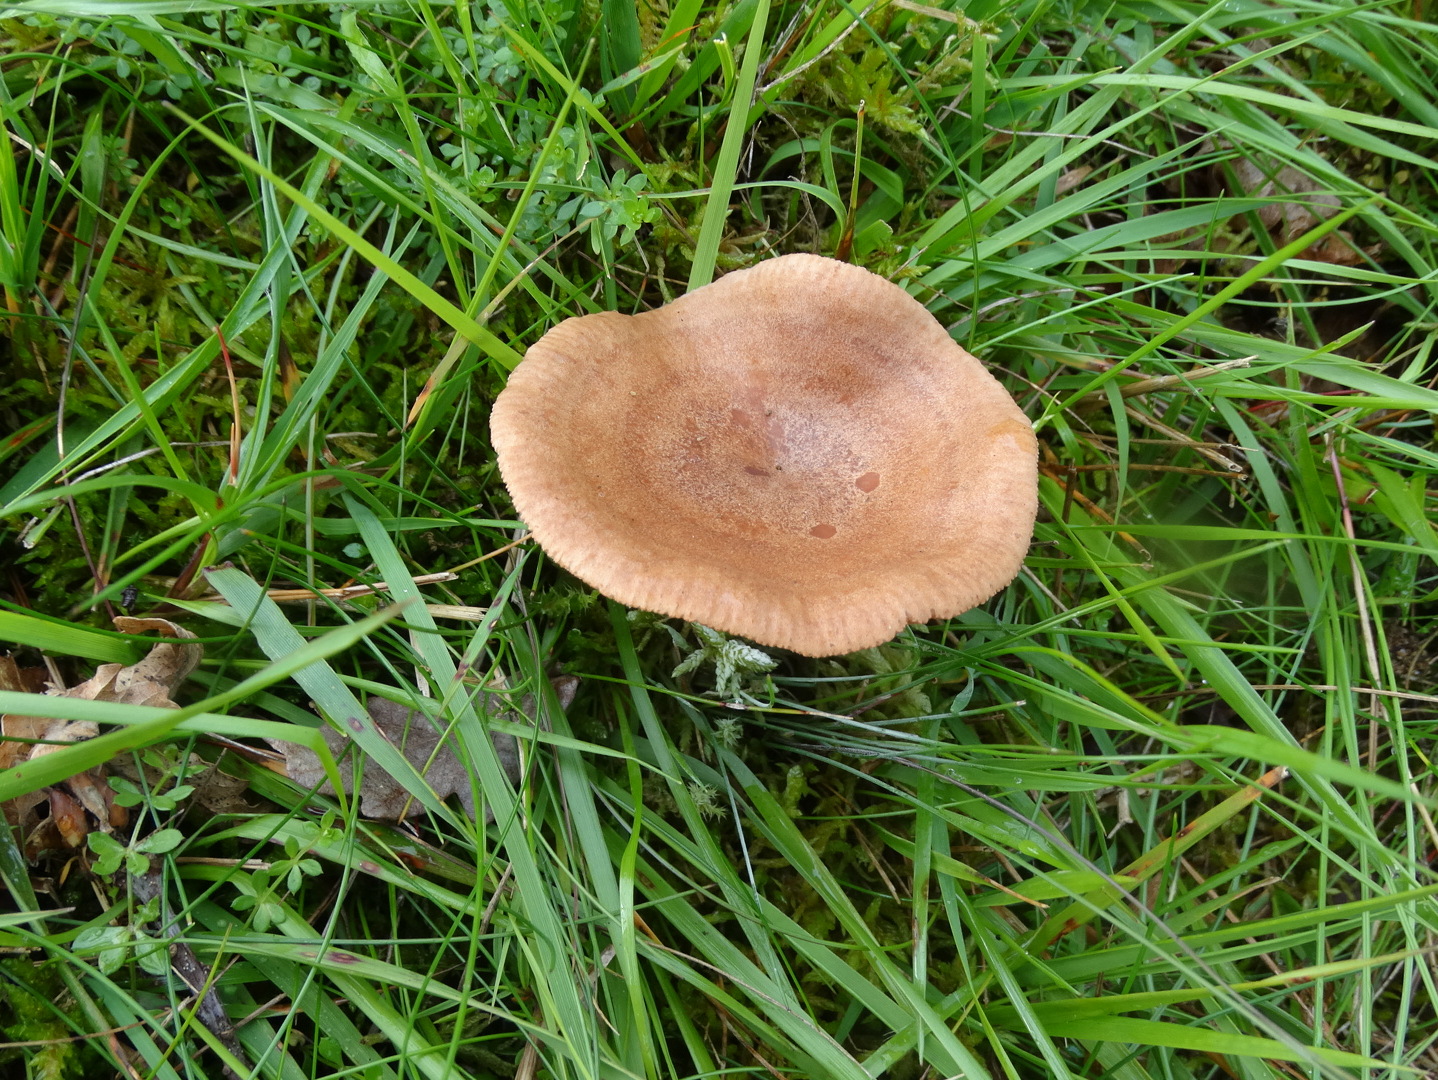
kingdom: Fungi
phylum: Basidiomycota
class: Agaricomycetes
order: Russulales
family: Russulaceae
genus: Lactarius
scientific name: Lactarius quietus
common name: ege-mælkehat
